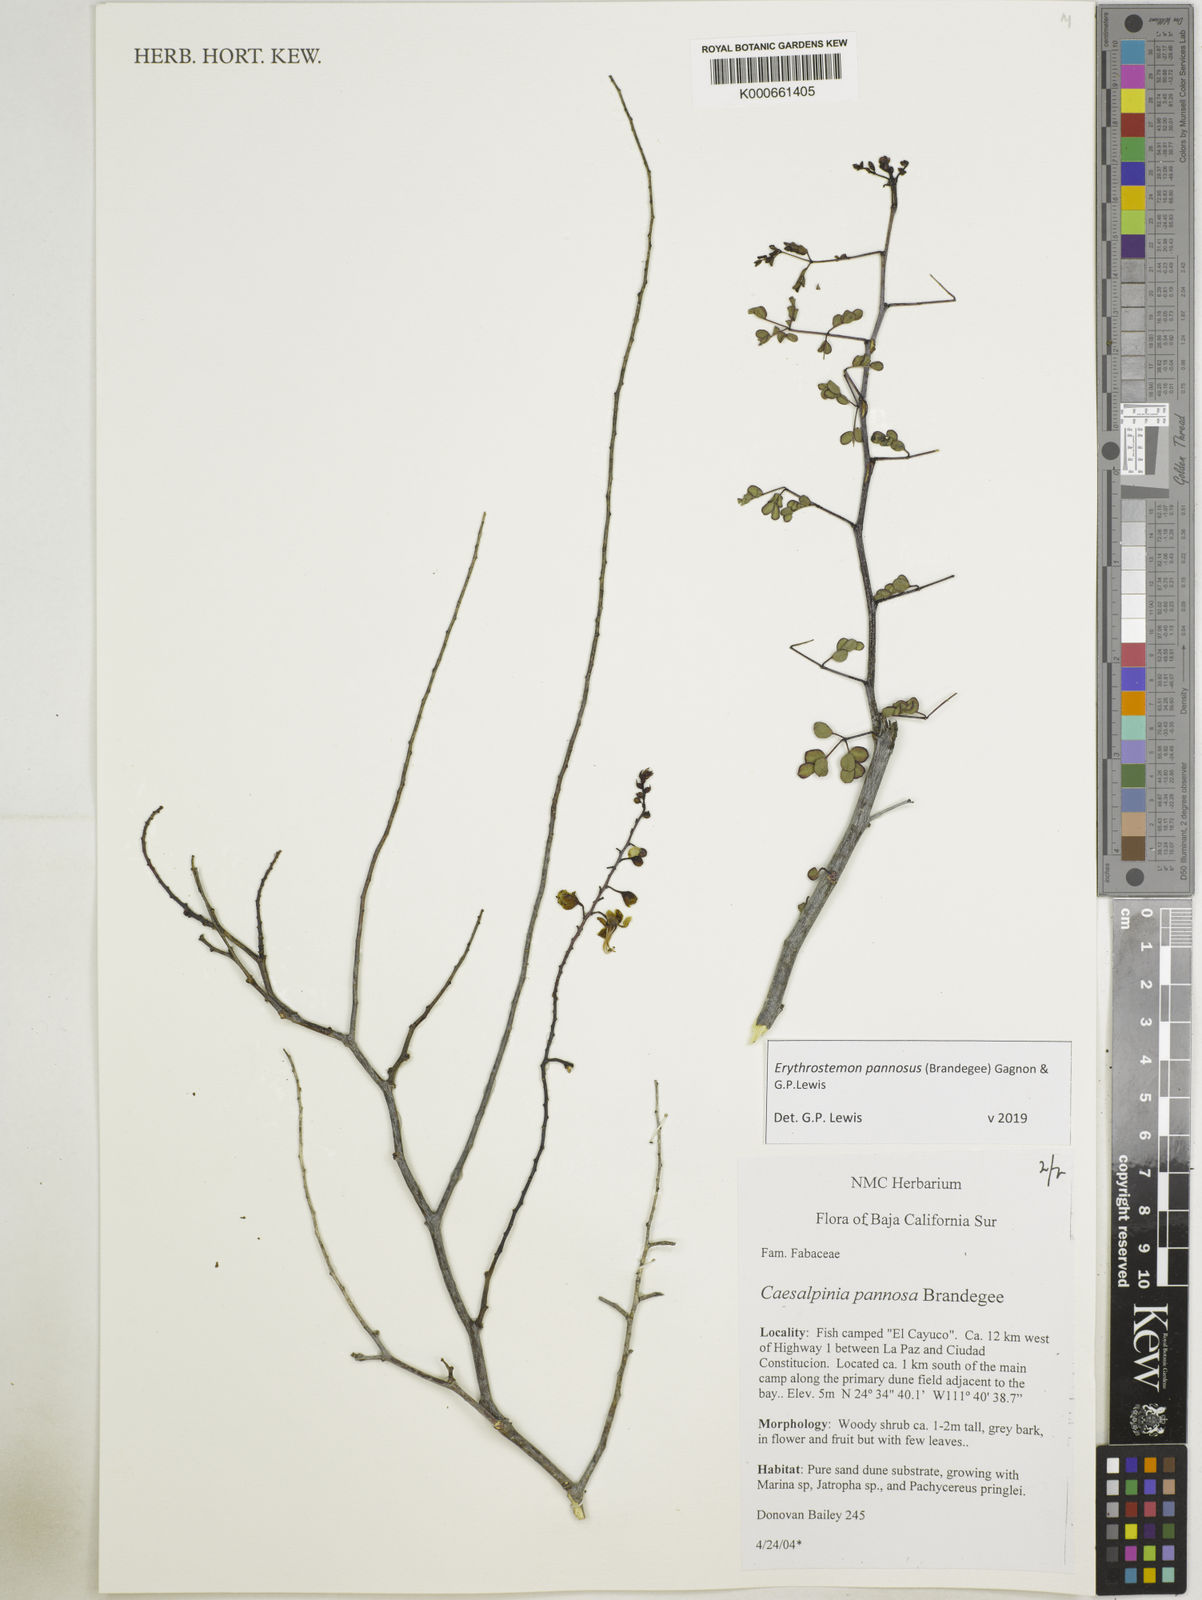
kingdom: Plantae
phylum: Tracheophyta
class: Magnoliopsida
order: Fabales
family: Fabaceae
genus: Erythrostemon
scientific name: Erythrostemon pannosus
